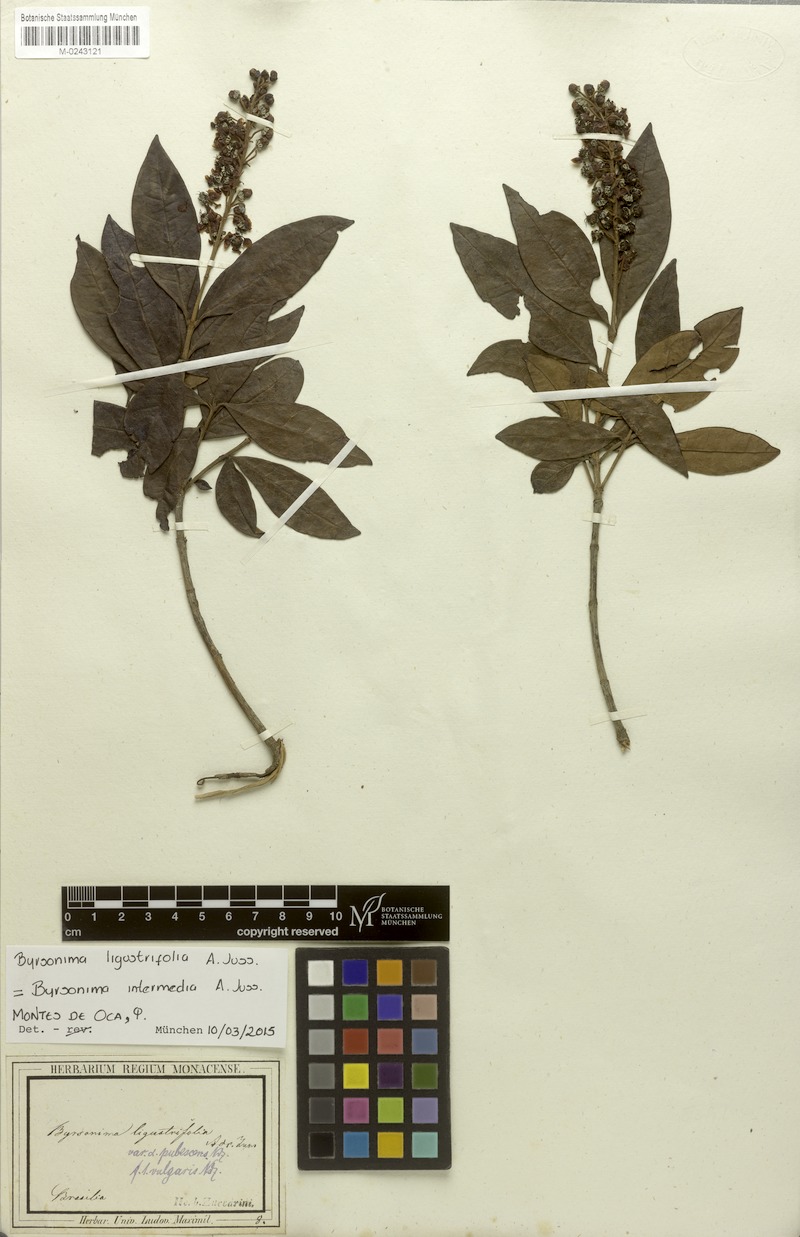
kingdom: Plantae
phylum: Tracheophyta
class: Magnoliopsida
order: Malpighiales
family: Malpighiaceae
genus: Byrsonima
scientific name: Byrsonima ligustrifolia
